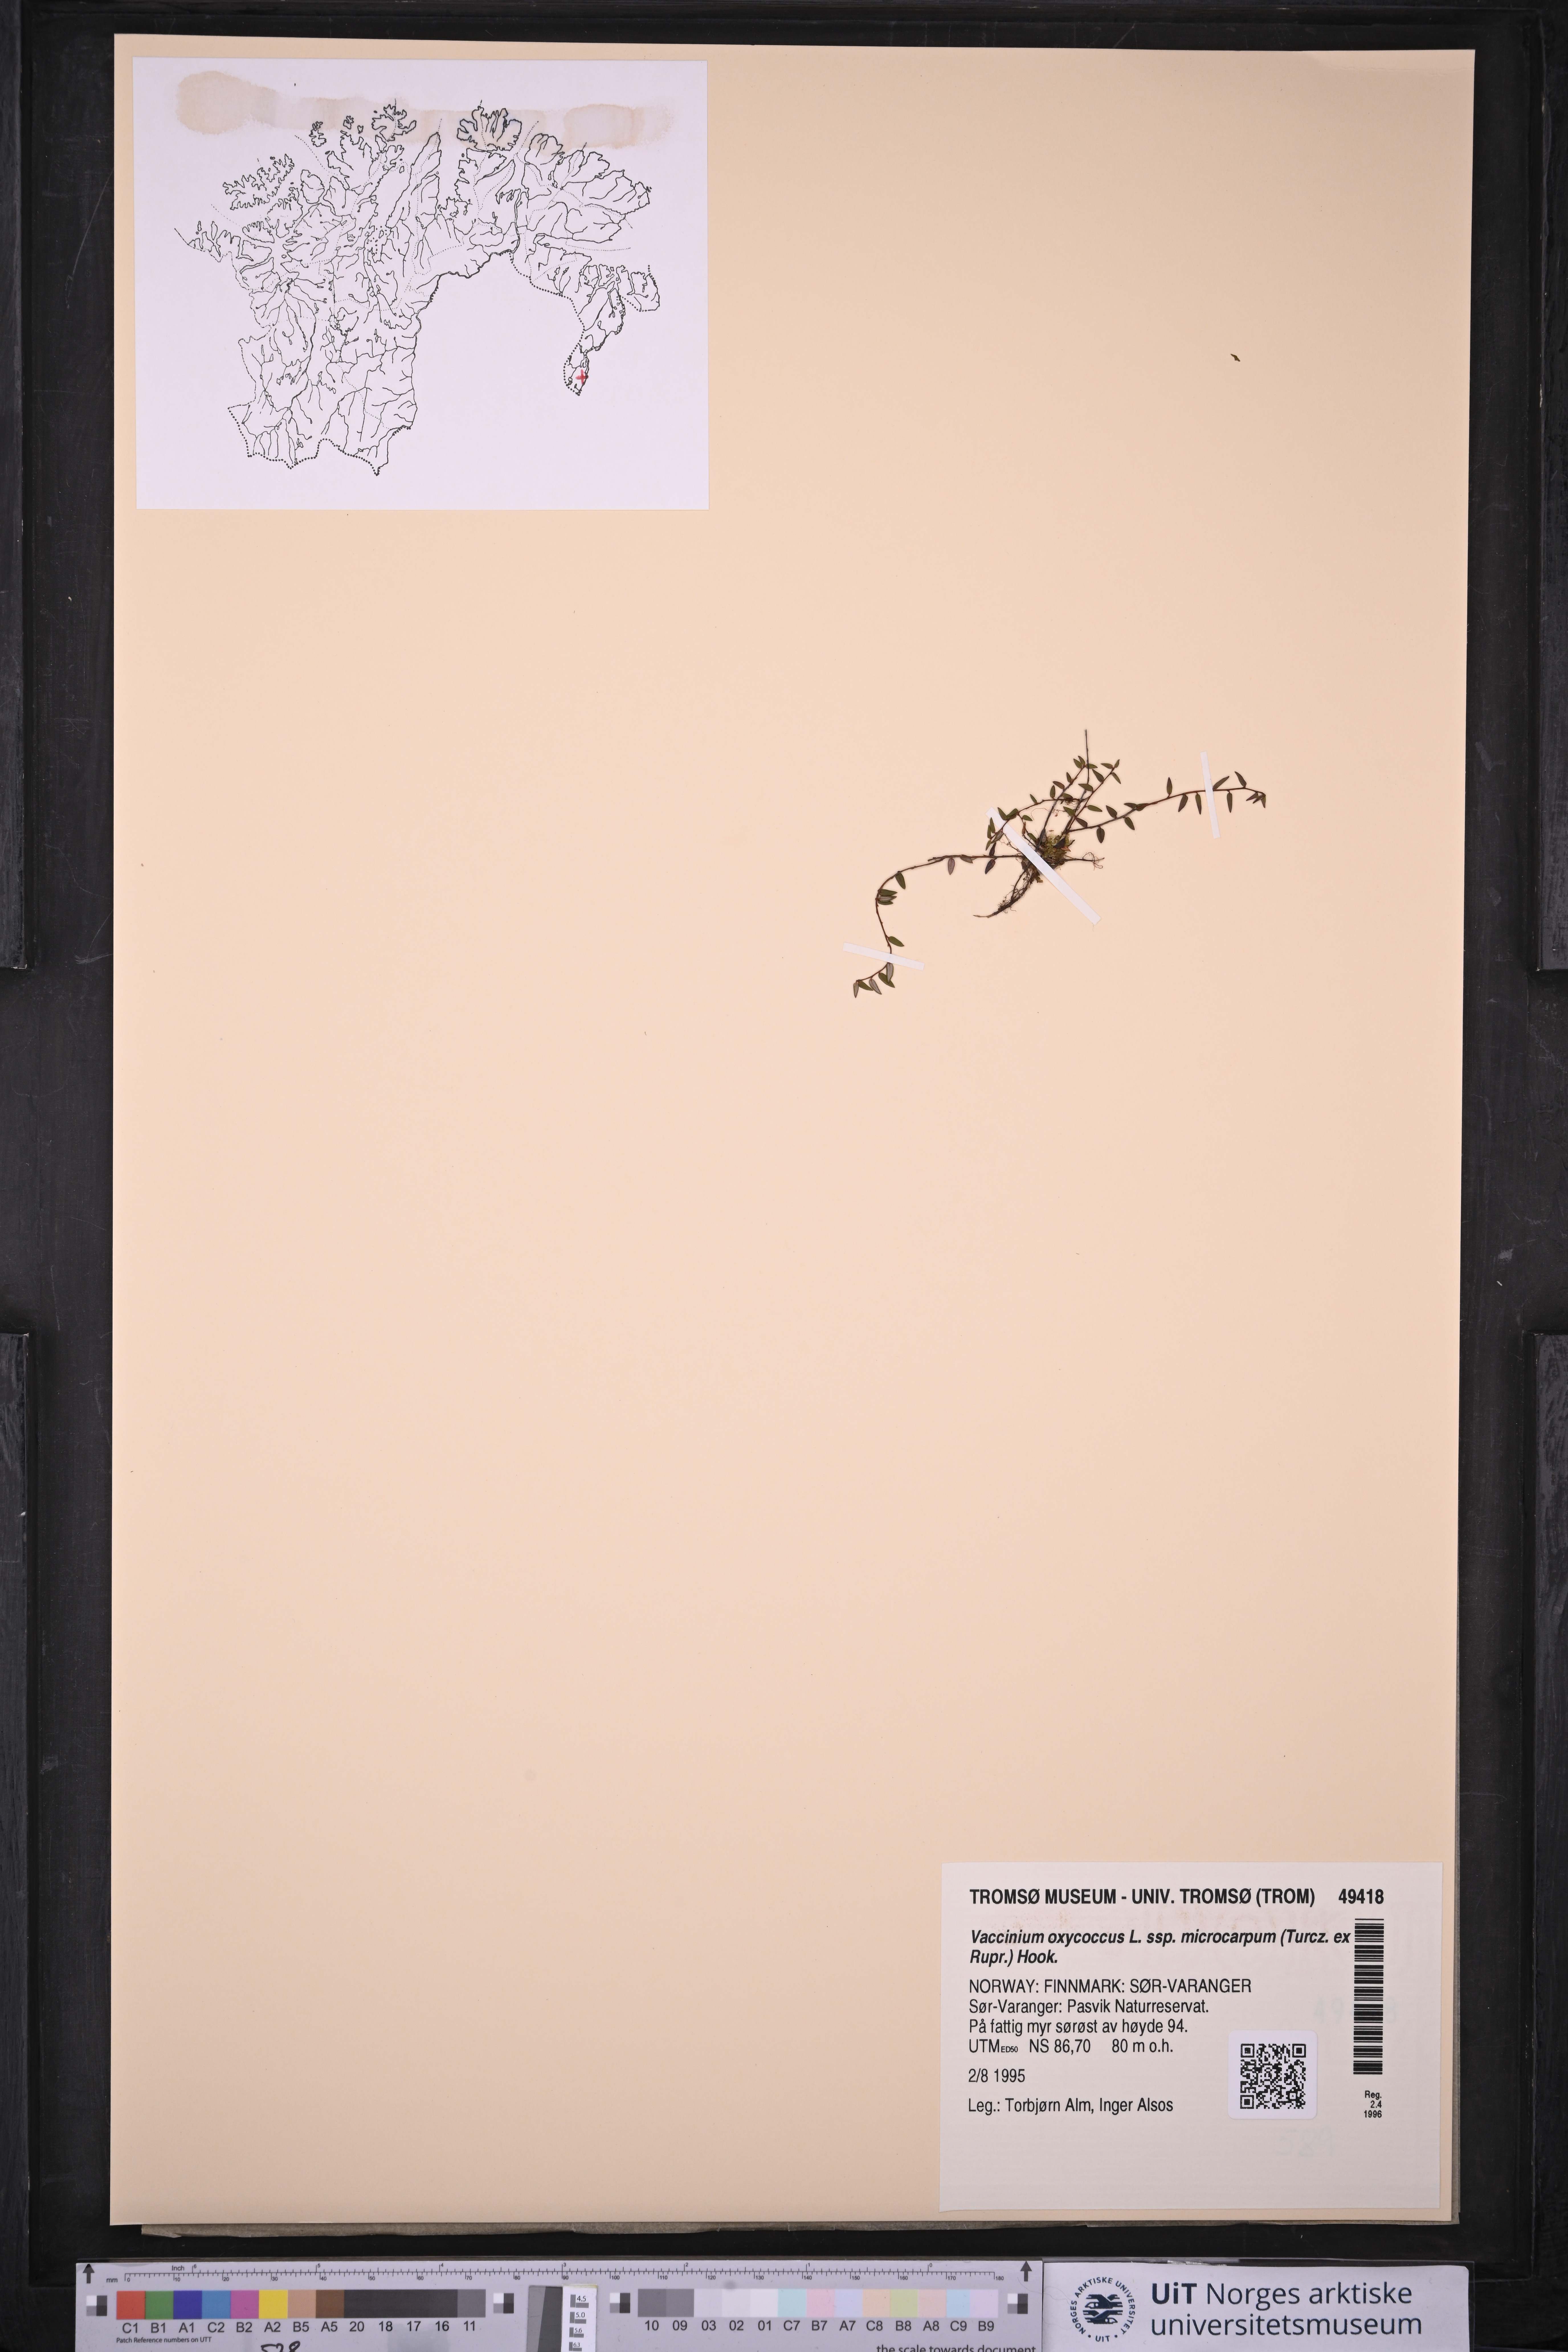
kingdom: Plantae
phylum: Tracheophyta
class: Magnoliopsida
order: Ericales
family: Ericaceae
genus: Vaccinium
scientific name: Vaccinium microcarpum
